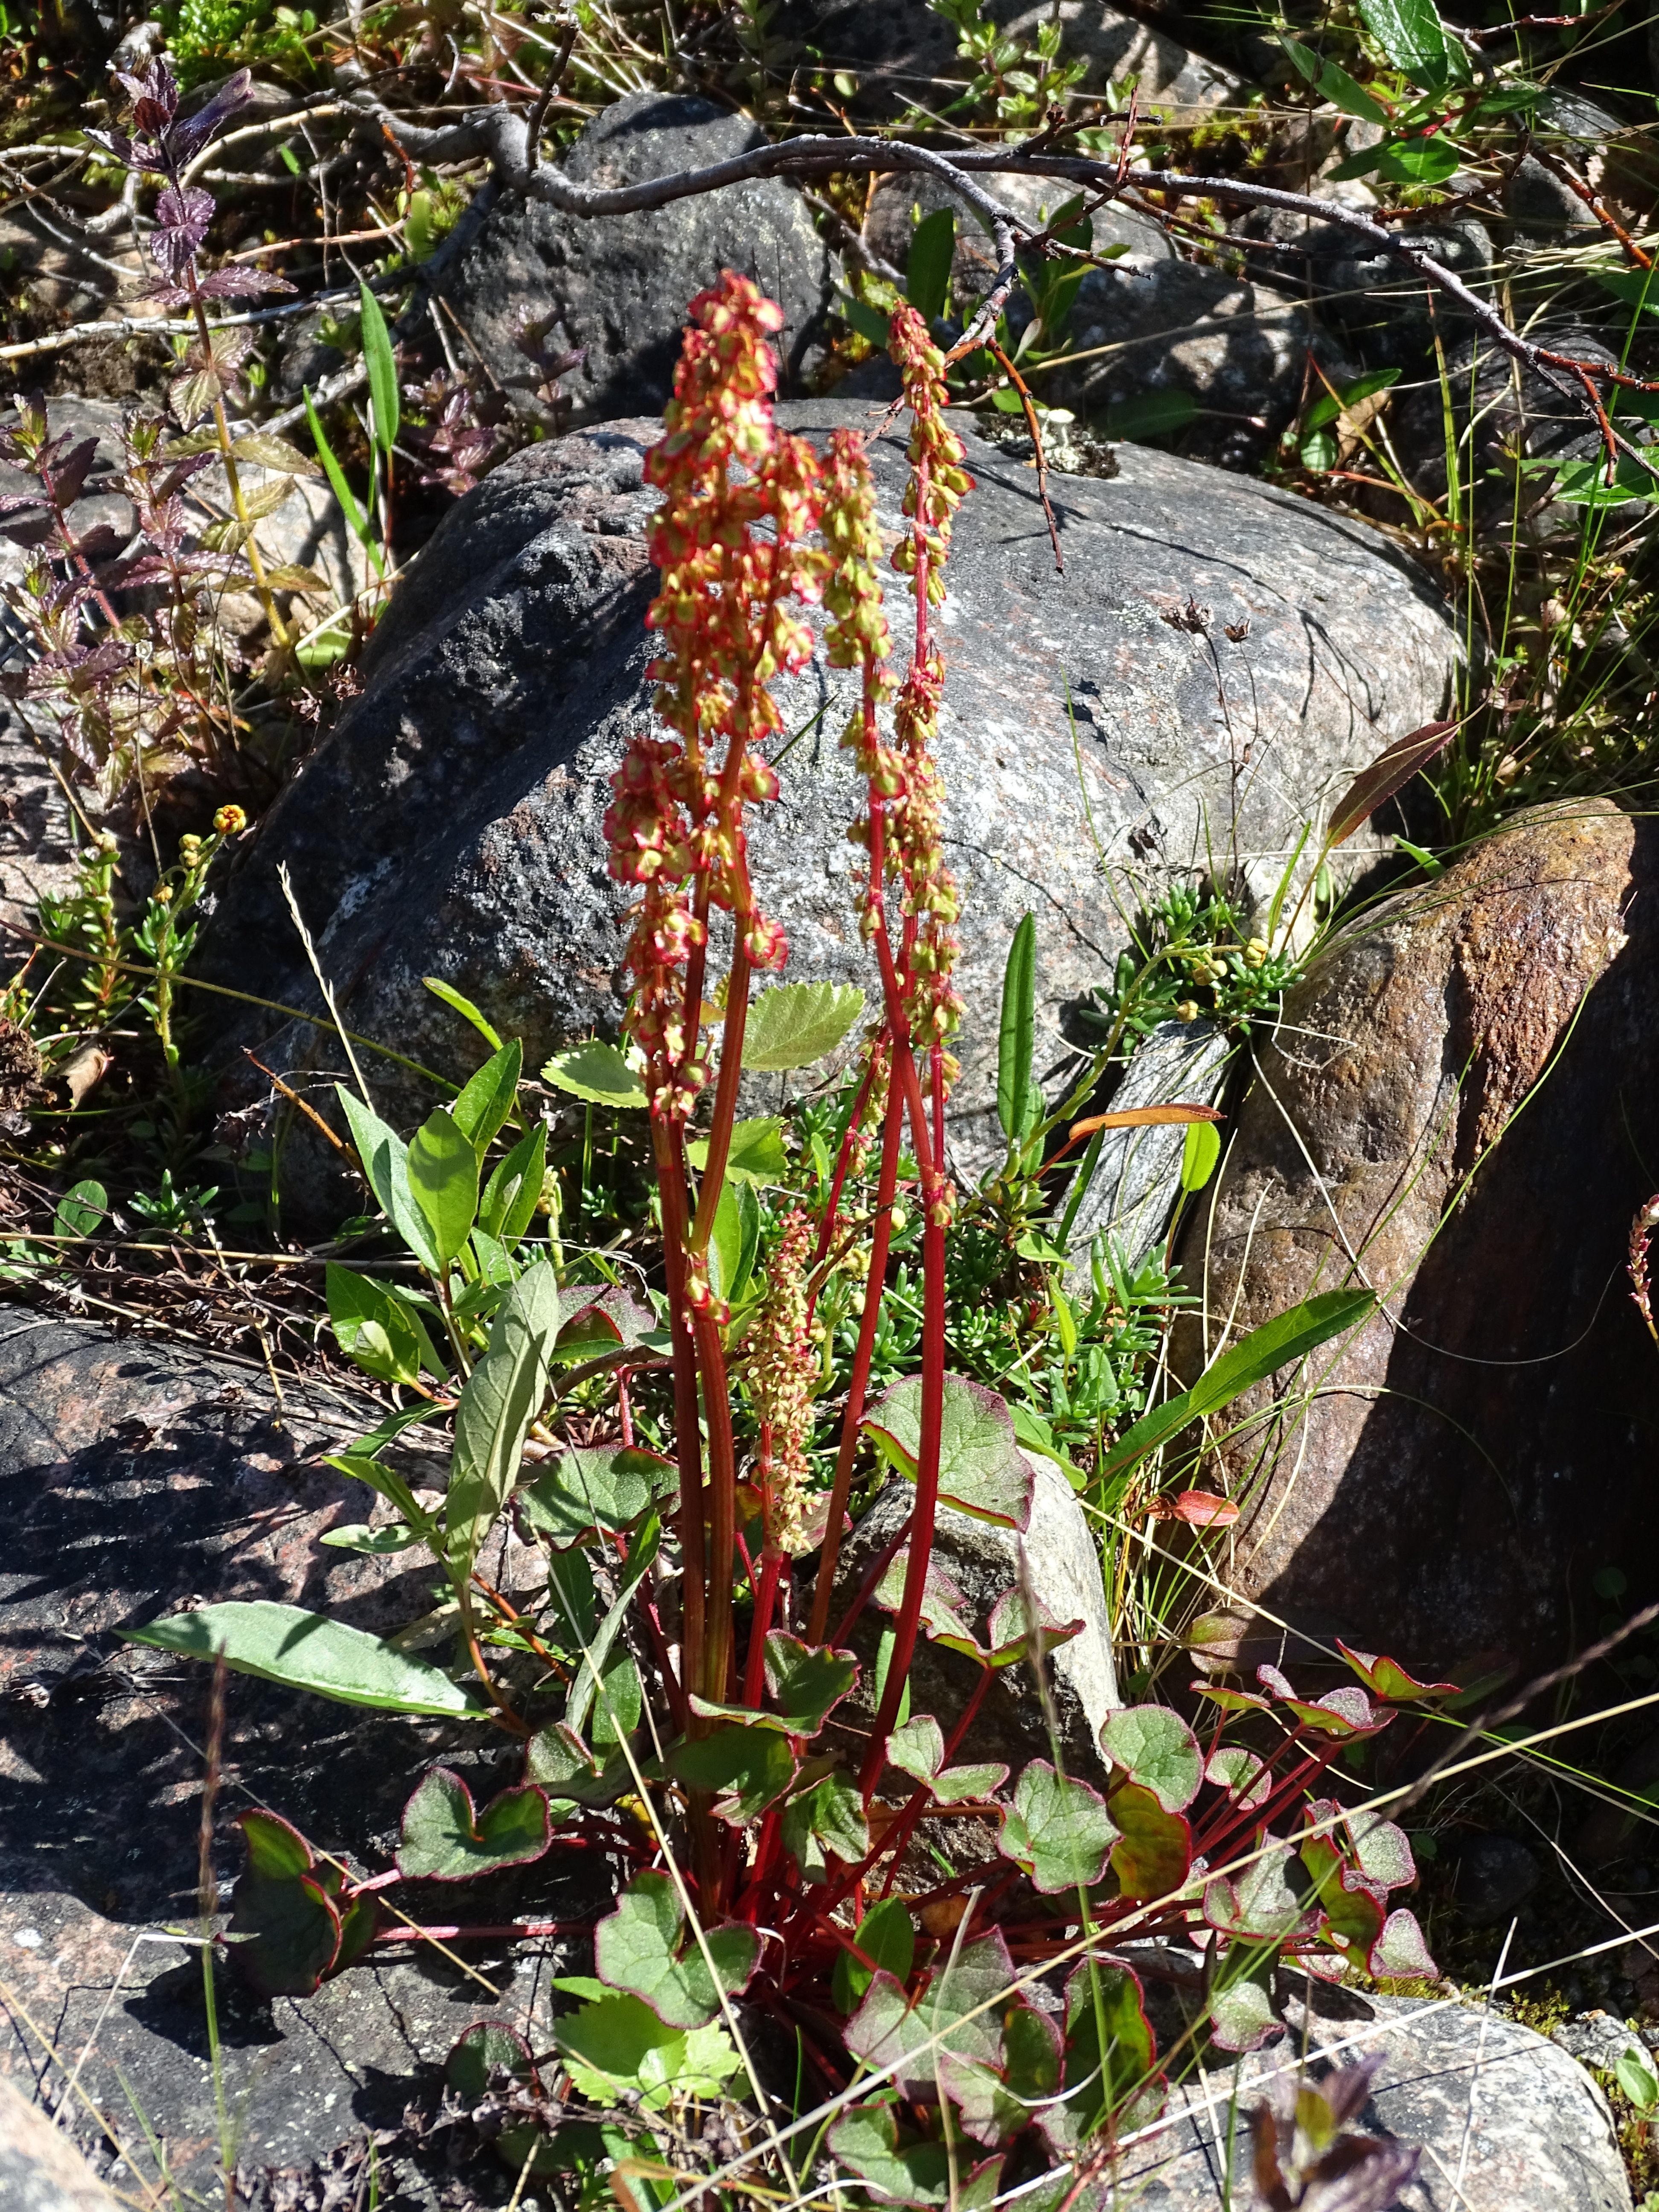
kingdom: Plantae
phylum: Tracheophyta
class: Magnoliopsida
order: Caryophyllales
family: Polygonaceae
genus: Oxyria
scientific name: Oxyria digyna
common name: Alpine mountain-sorrel
